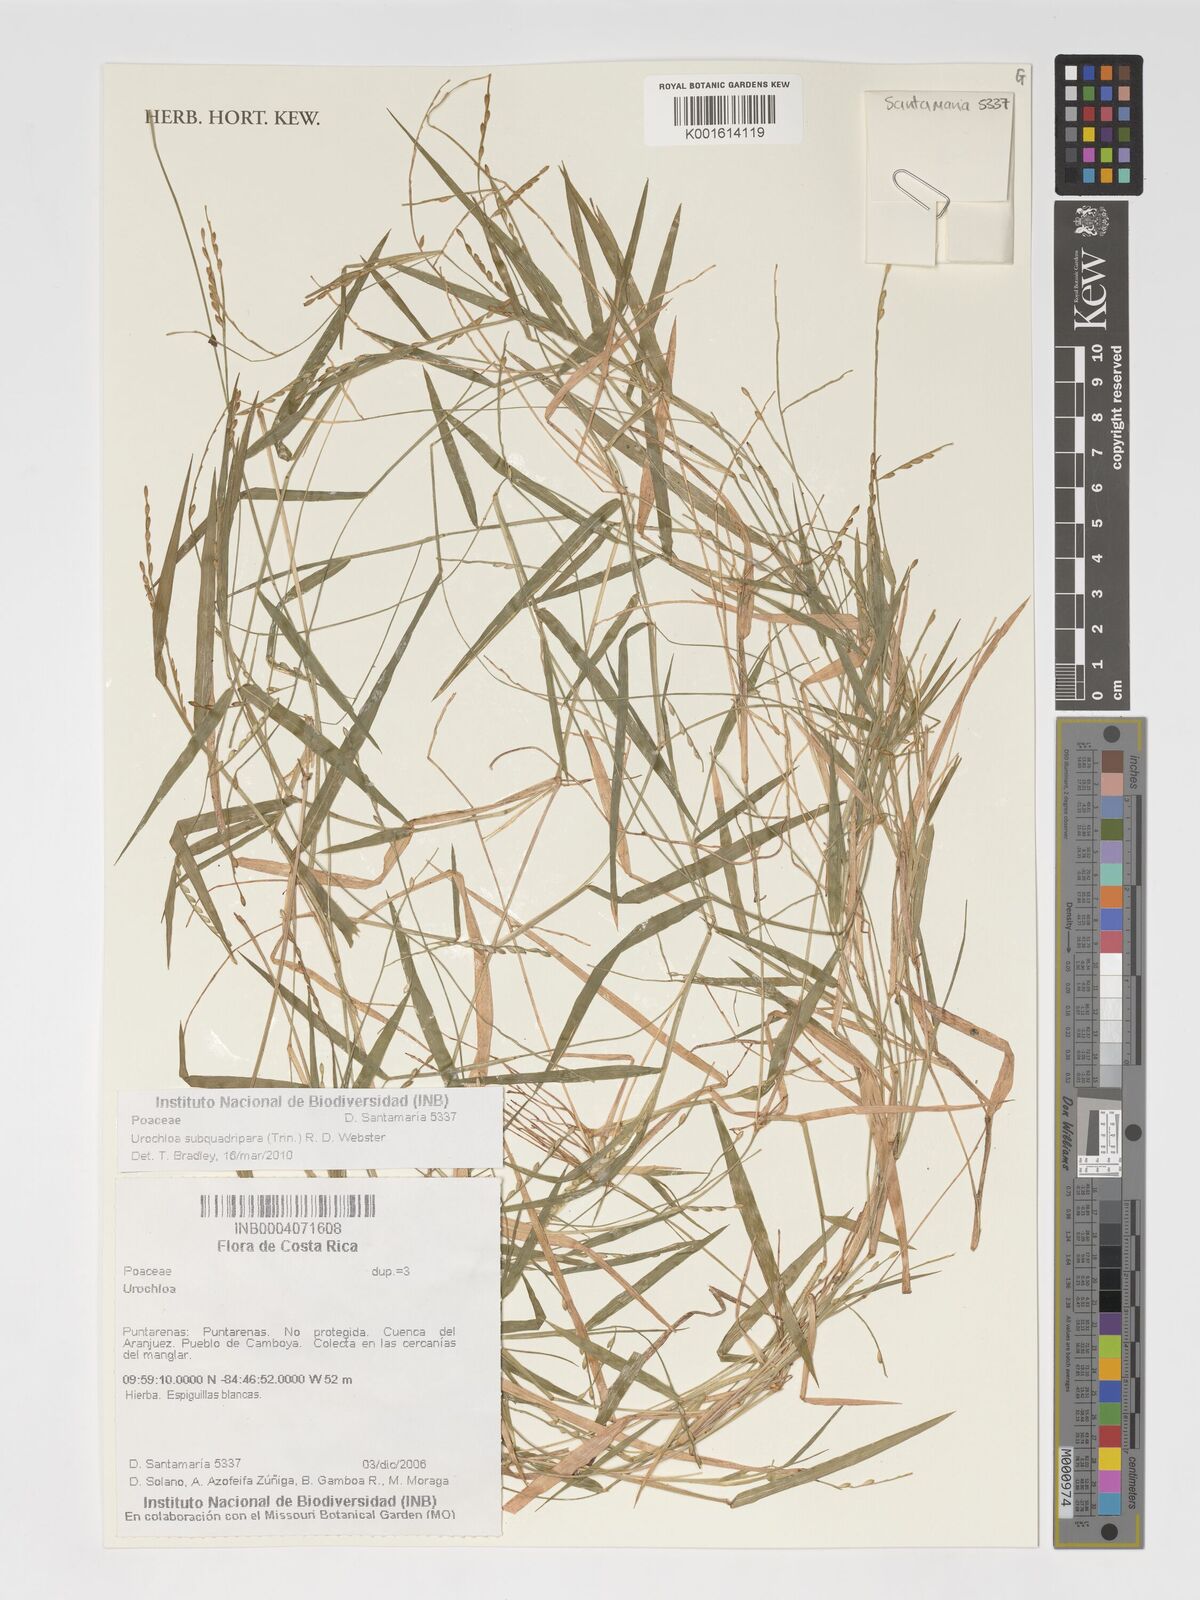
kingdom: Plantae
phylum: Tracheophyta
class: Liliopsida
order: Poales
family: Poaceae
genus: Urochloa
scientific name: Urochloa subquadripara
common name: Armgrass millet
